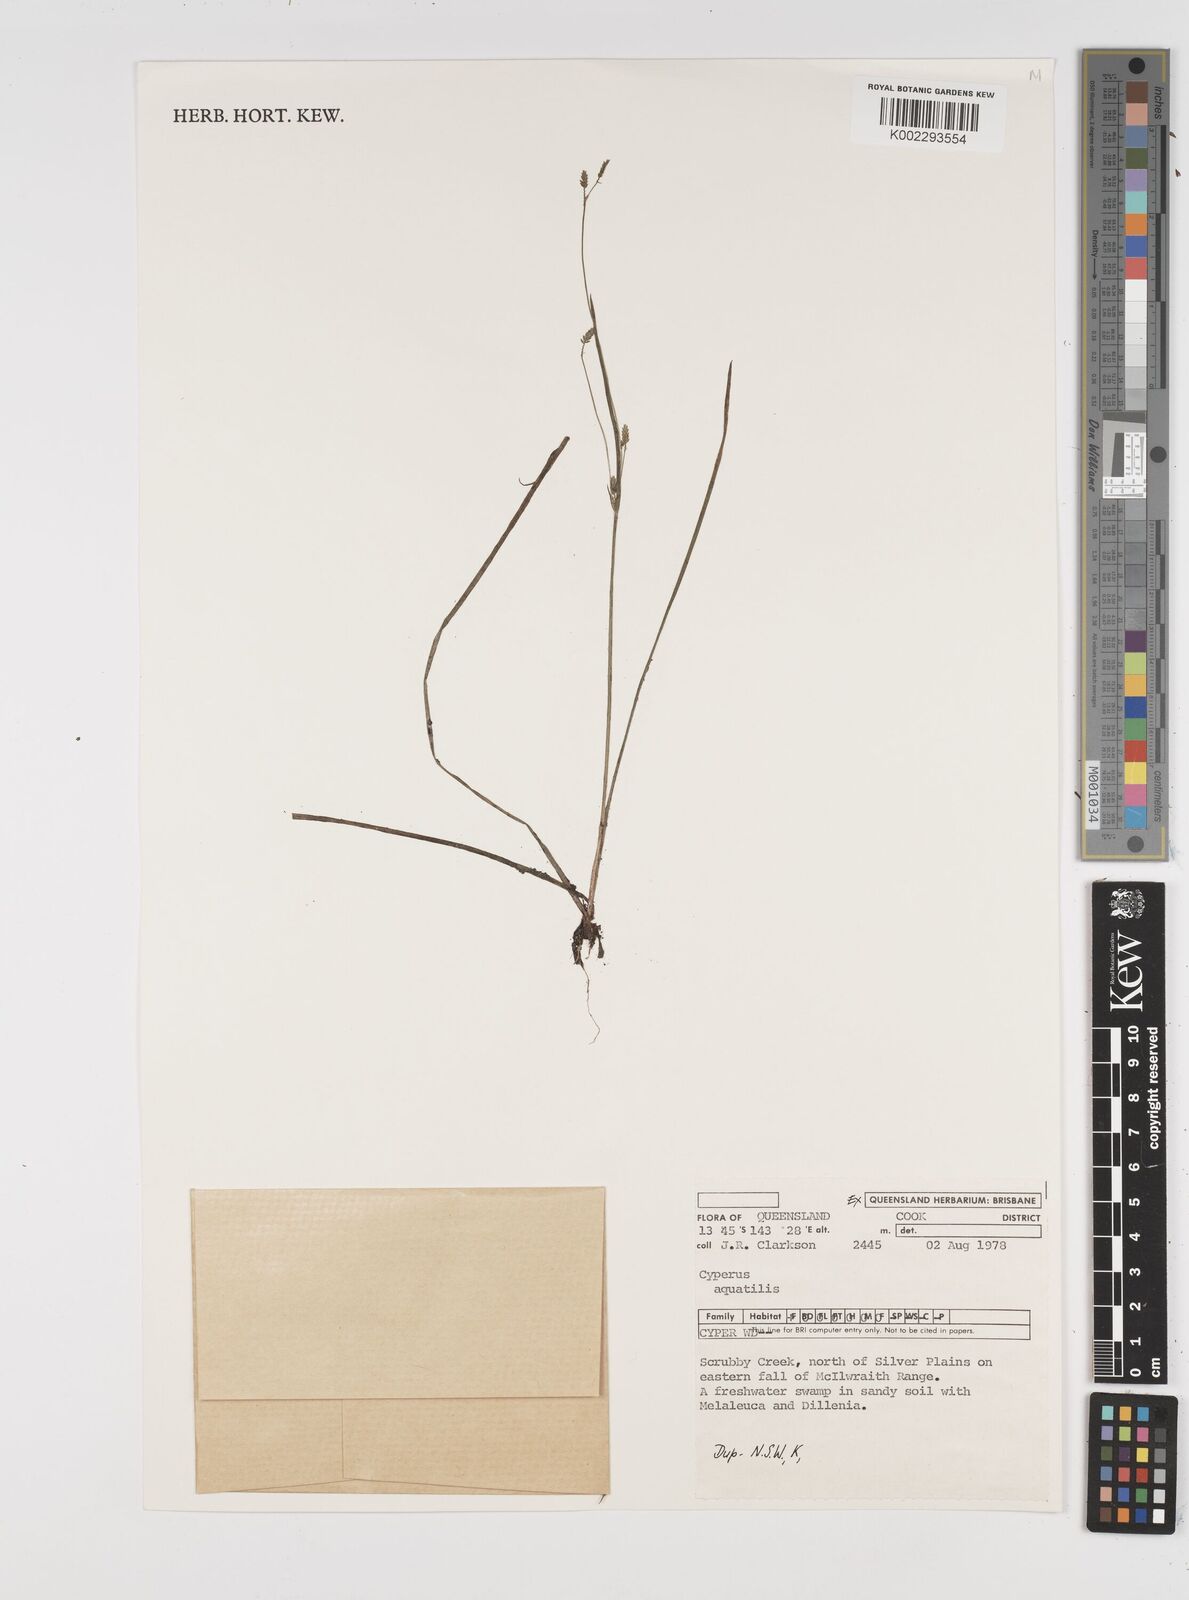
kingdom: Plantae
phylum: Tracheophyta
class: Liliopsida
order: Poales
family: Cyperaceae
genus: Cyperus
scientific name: Cyperus aquatilis
